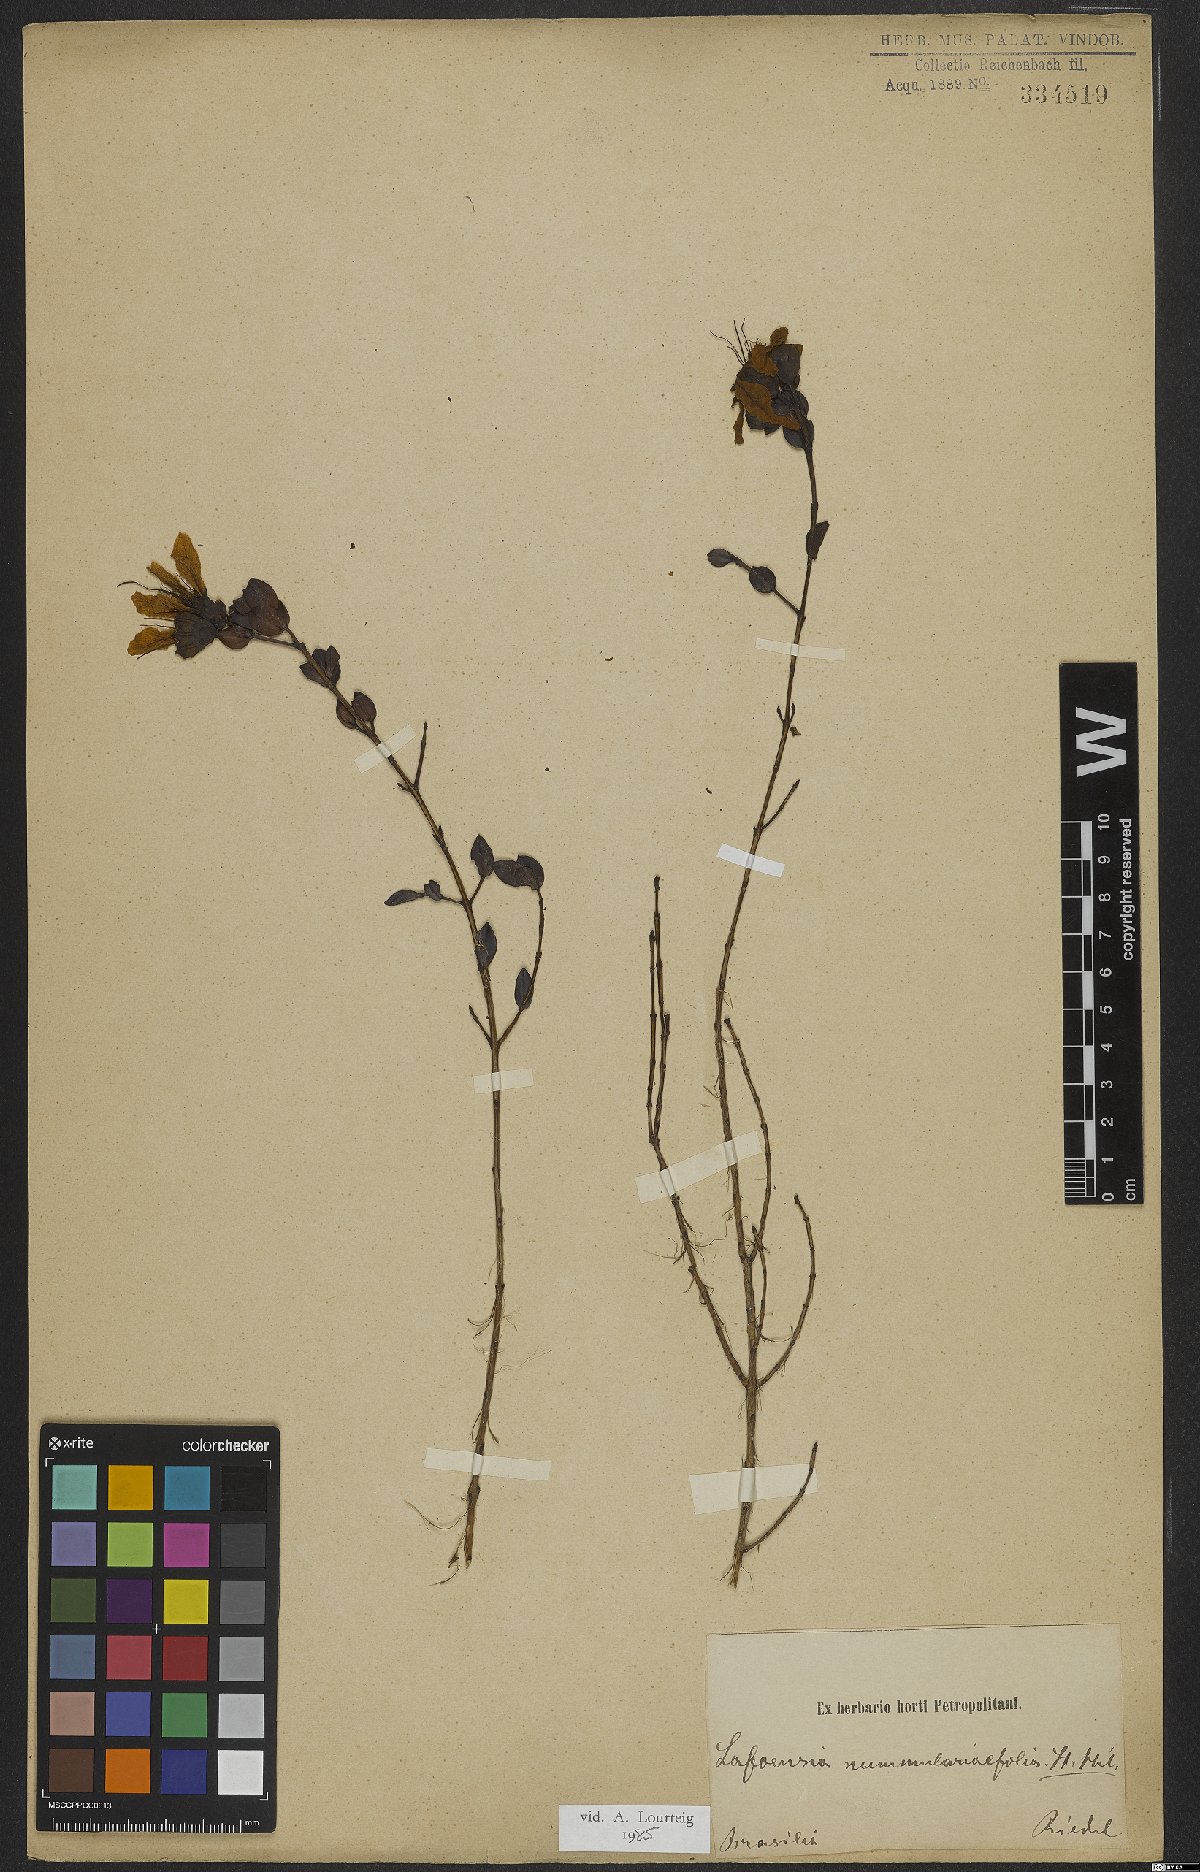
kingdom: Plantae
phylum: Tracheophyta
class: Magnoliopsida
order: Myrtales
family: Lythraceae
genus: Lafoensia
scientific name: Lafoensia nummularifolia
